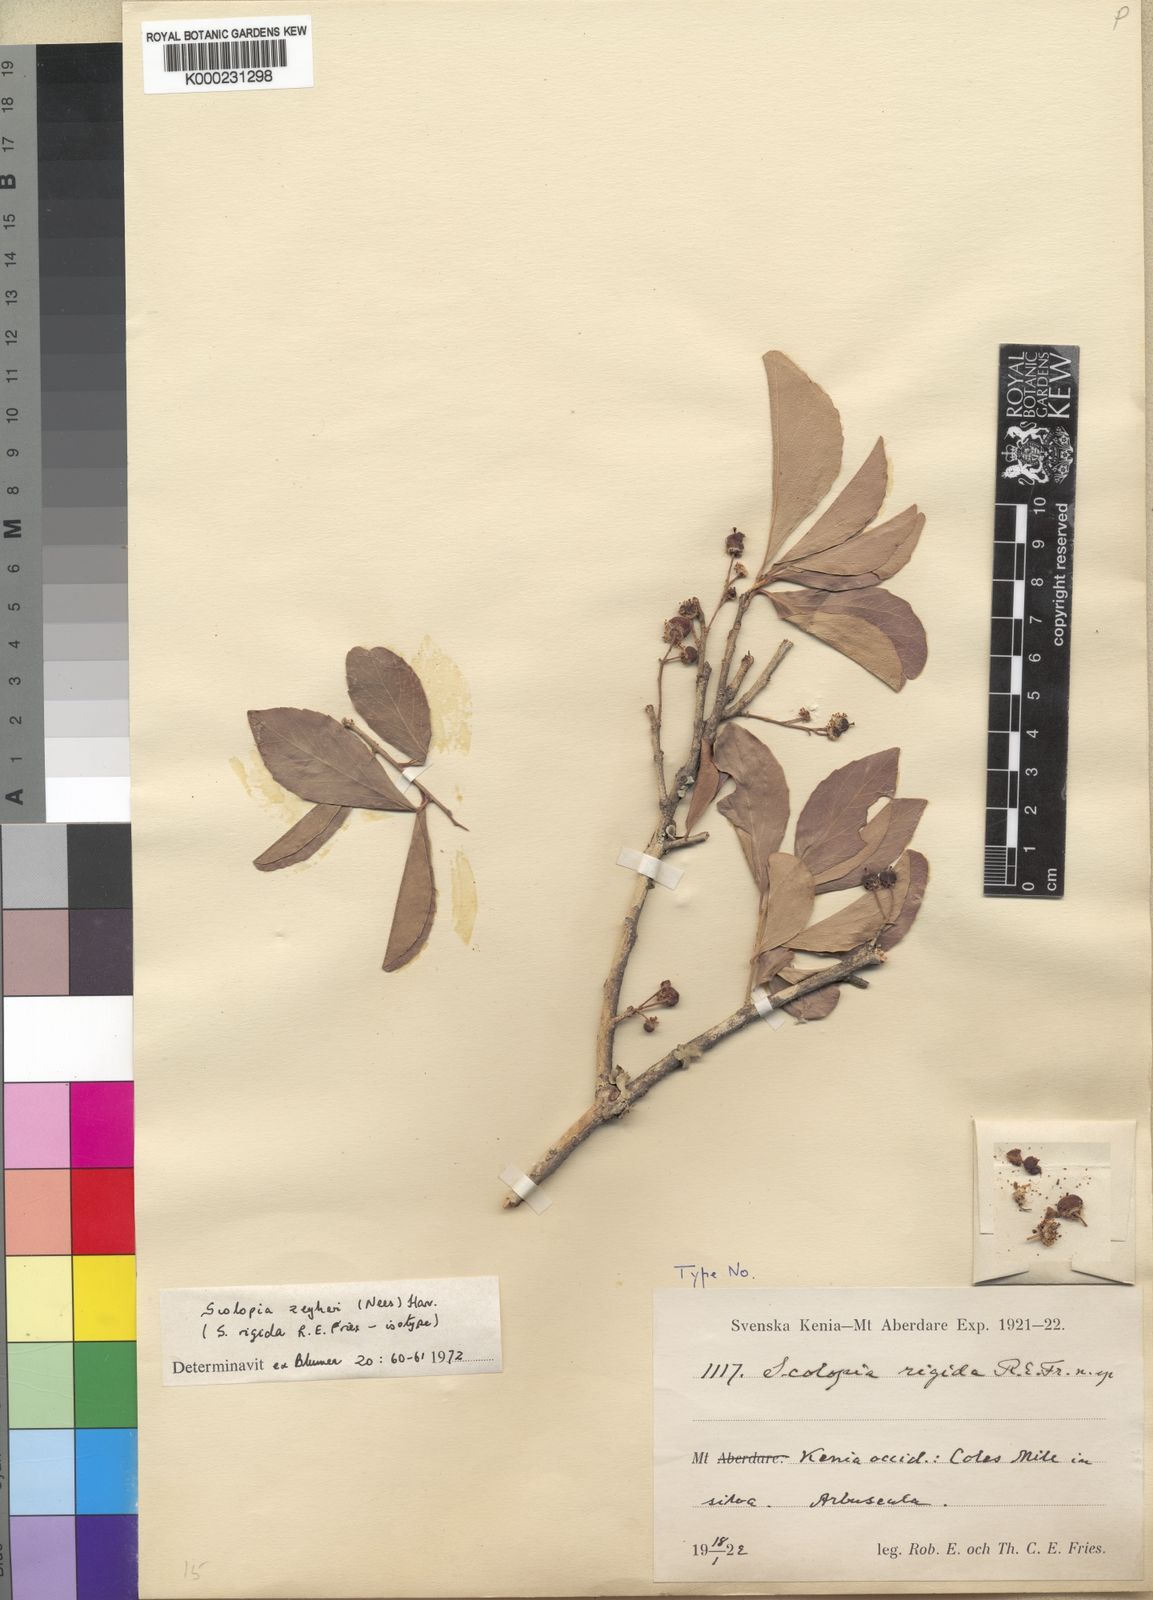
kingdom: Plantae
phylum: Tracheophyta
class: Magnoliopsida
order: Malpighiales
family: Salicaceae
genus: Scolopia
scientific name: Scolopia
